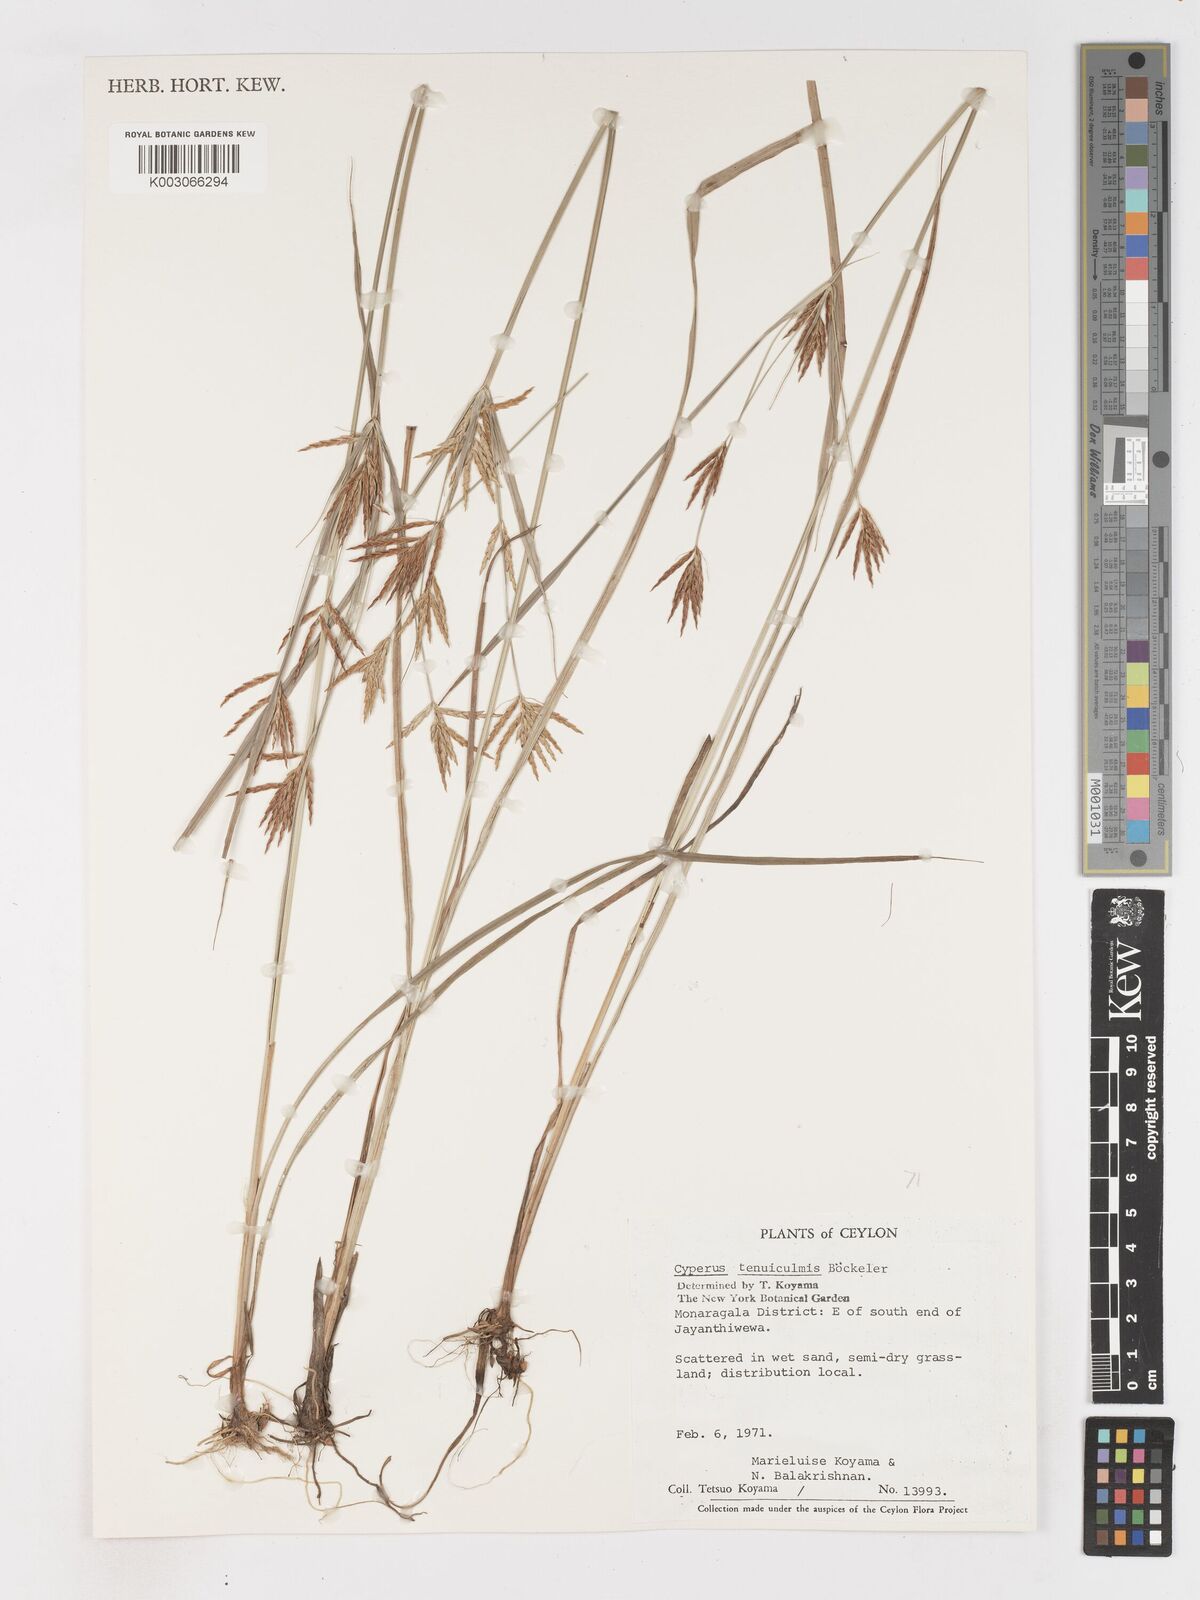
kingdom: Plantae
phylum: Tracheophyta
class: Liliopsida
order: Poales
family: Cyperaceae
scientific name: Cyperaceae
